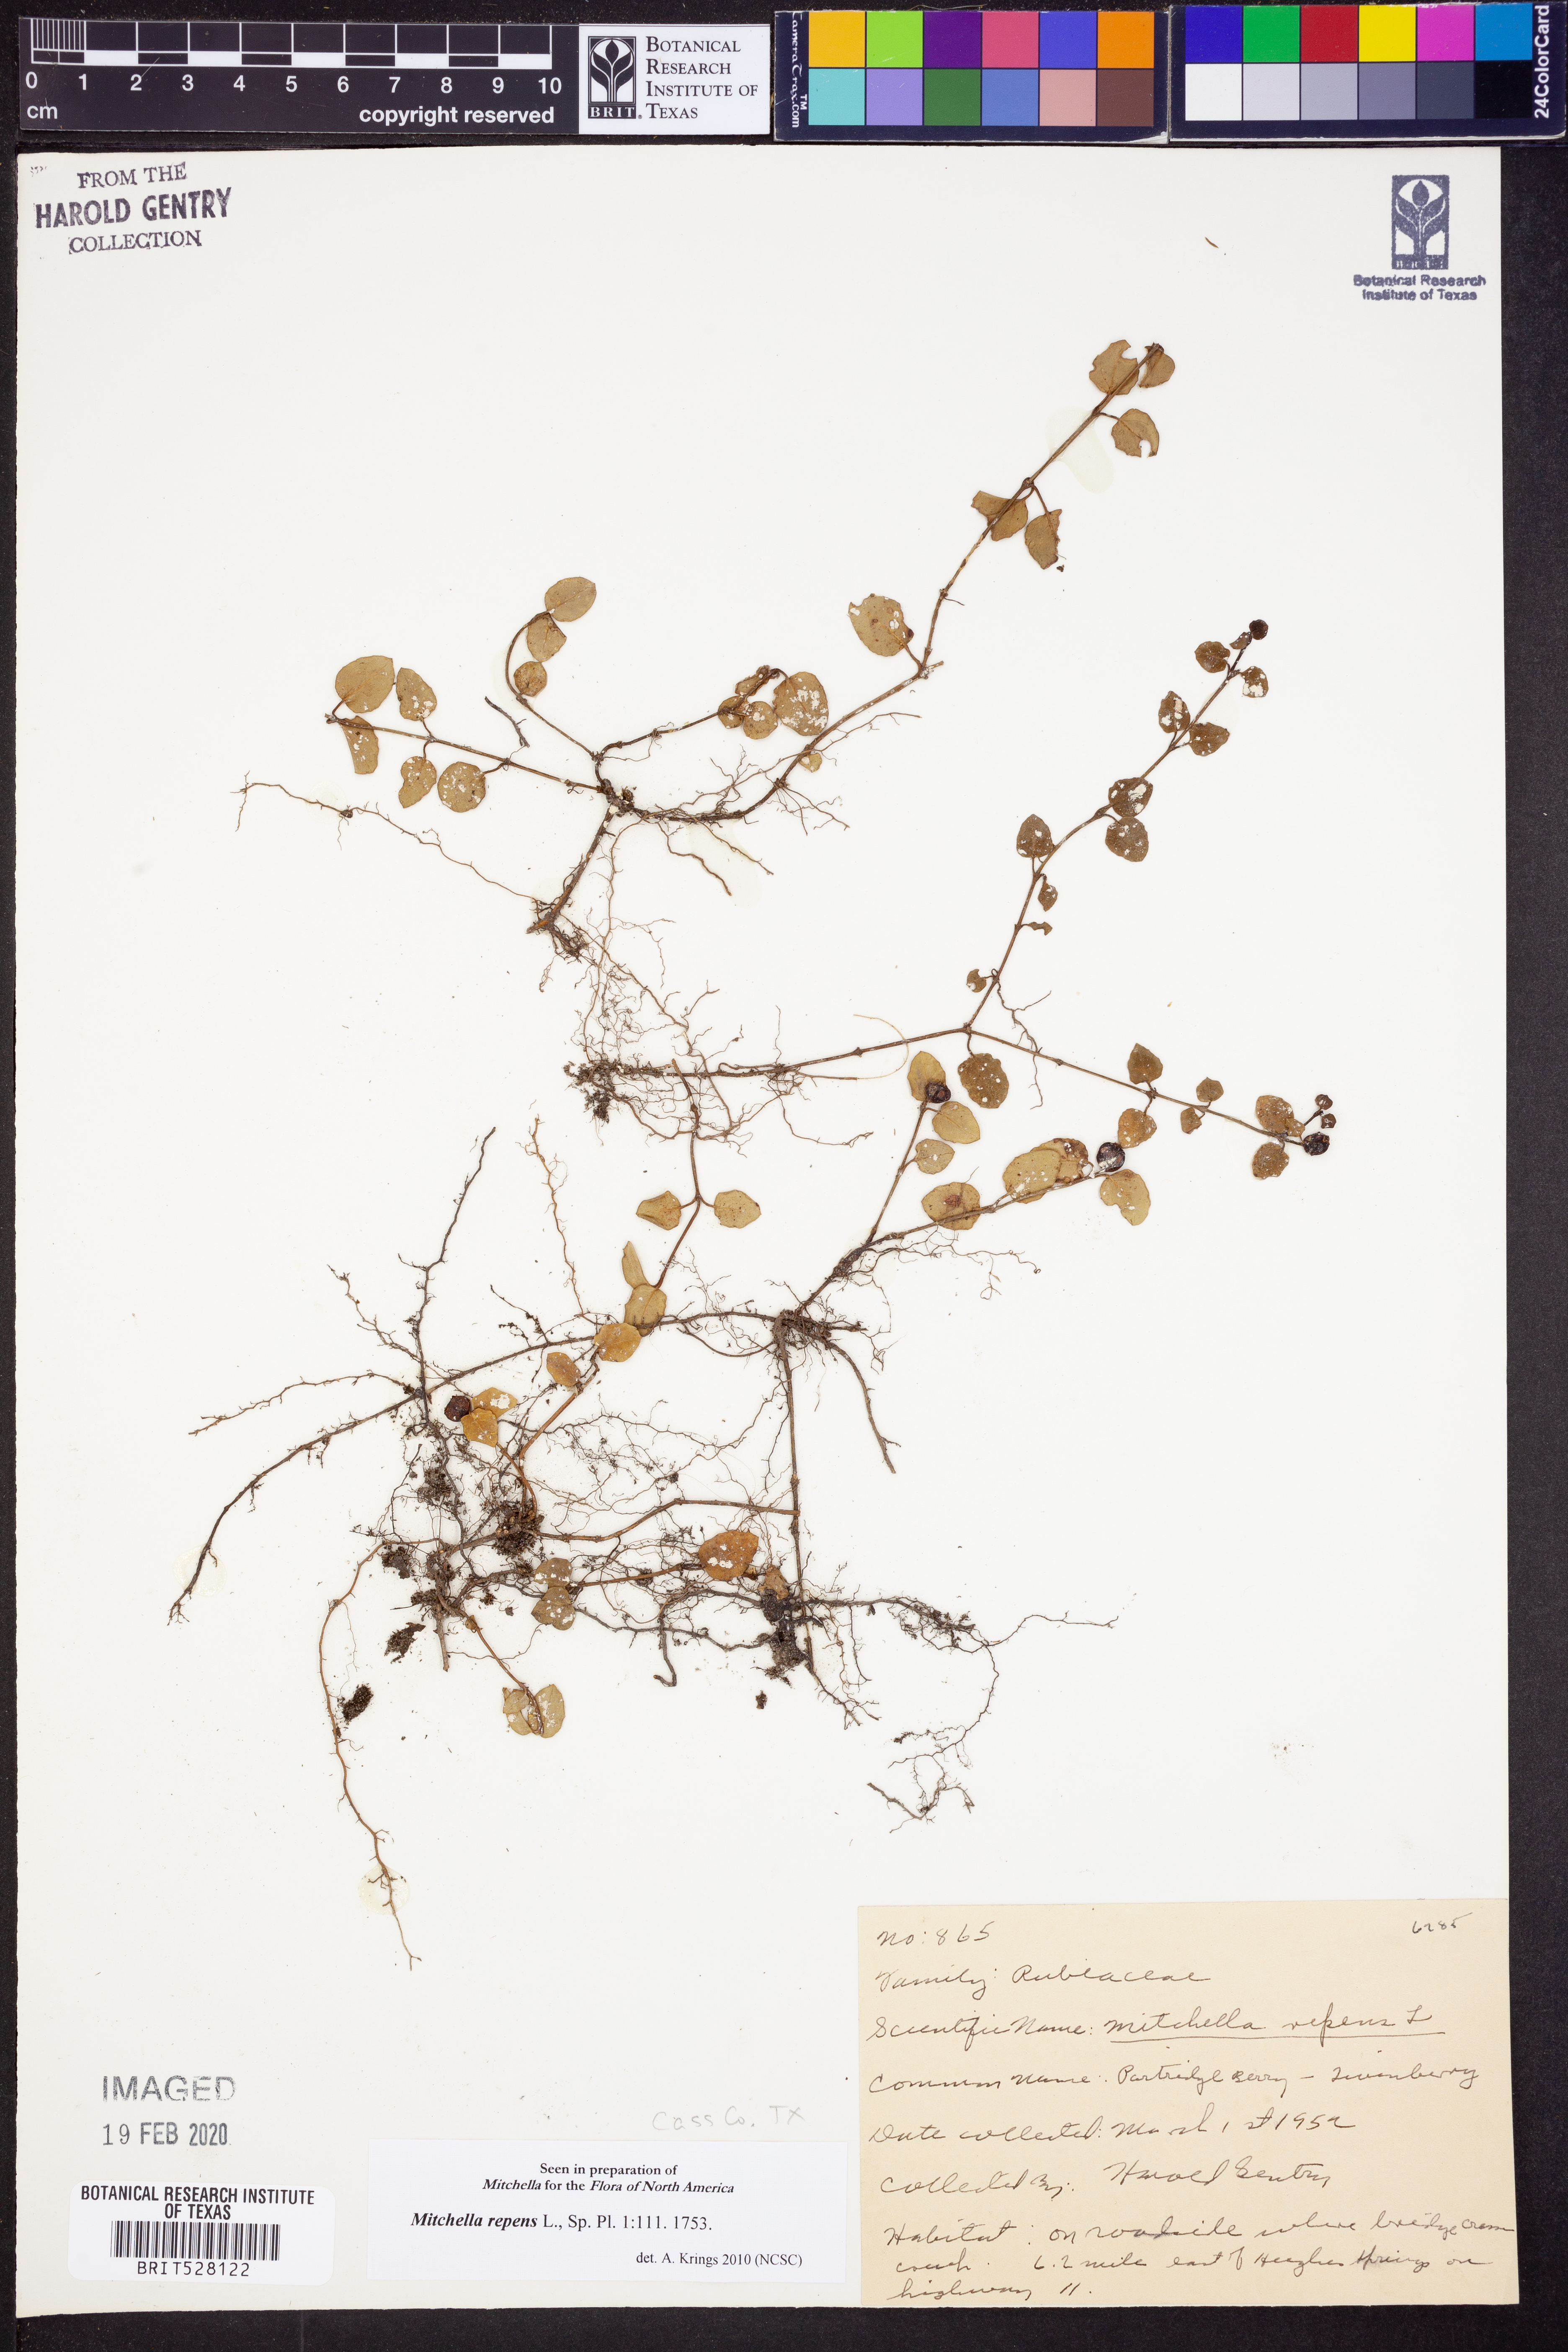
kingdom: Plantae
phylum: Tracheophyta
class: Magnoliopsida
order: Gentianales
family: Rubiaceae
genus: Mitchella
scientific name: Mitchella repens
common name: Partridge-berry
